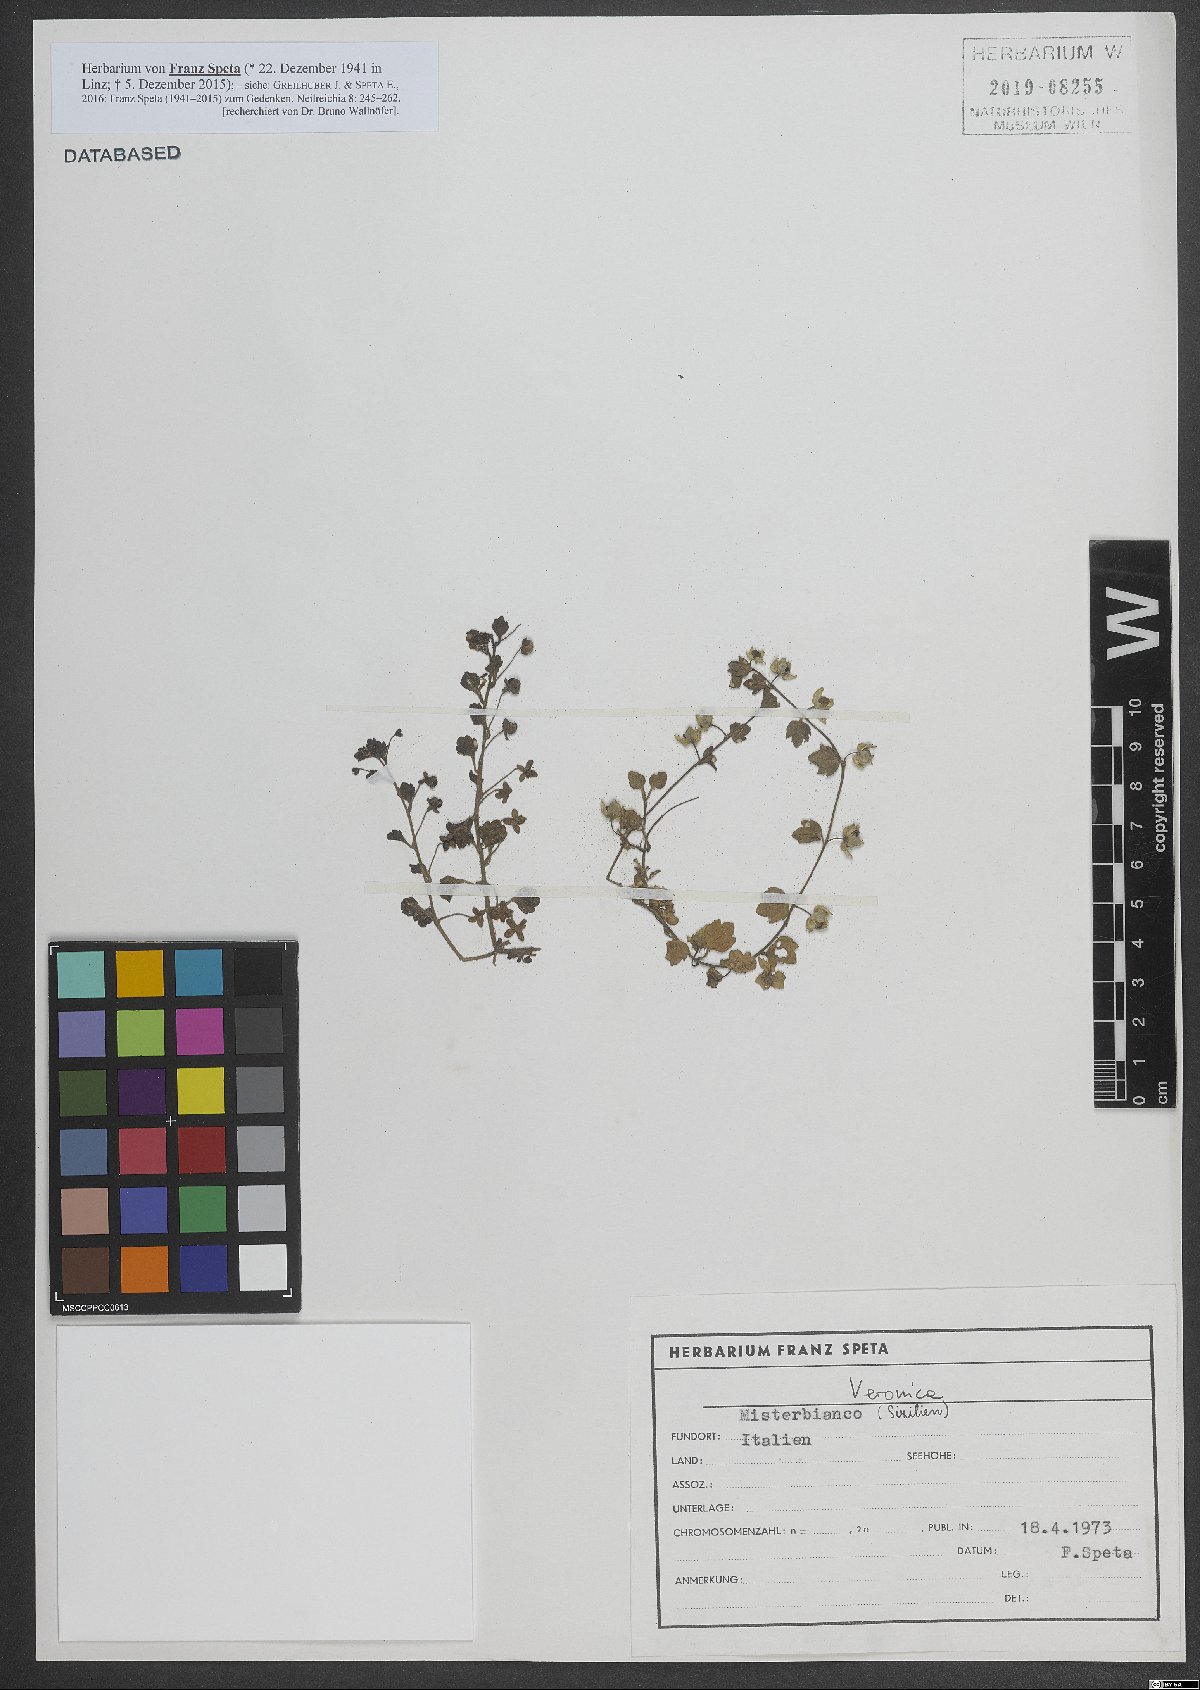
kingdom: Plantae
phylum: Tracheophyta
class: Magnoliopsida
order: Lamiales
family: Plantaginaceae
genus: Veronica
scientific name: Veronica
